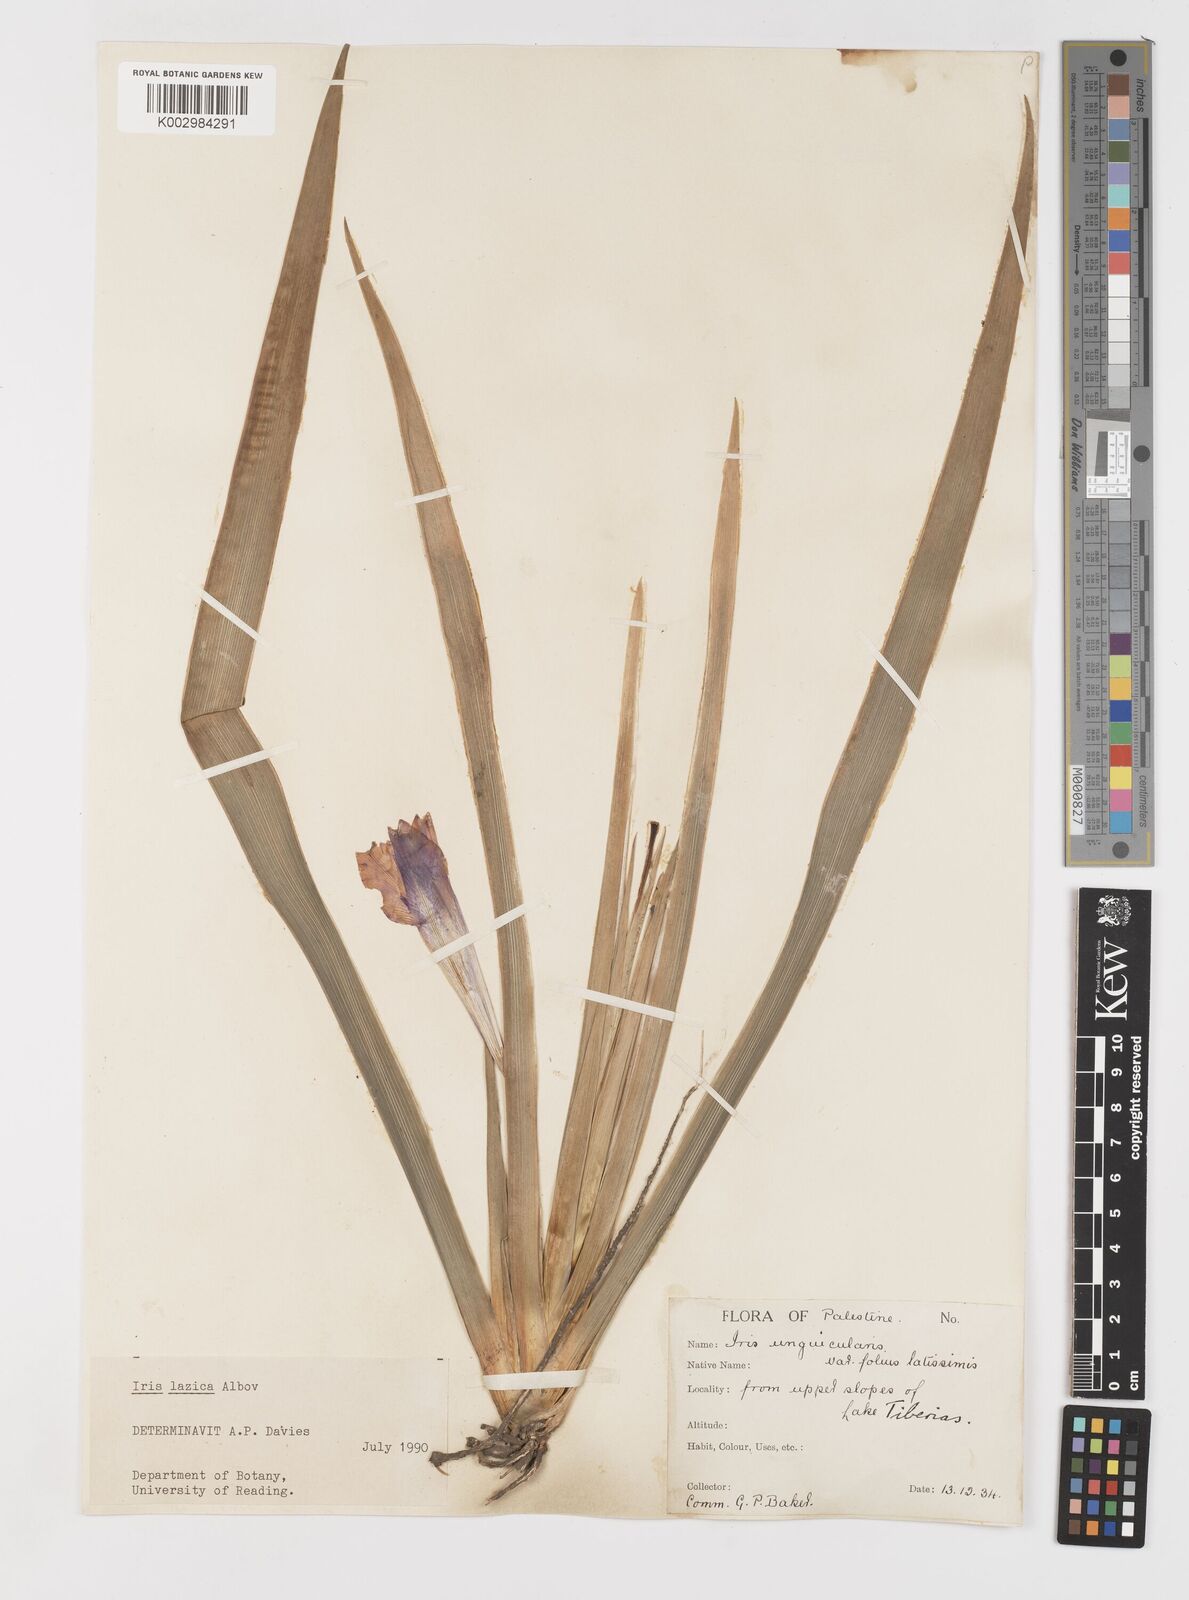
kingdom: Plantae
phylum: Tracheophyta
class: Liliopsida
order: Asparagales
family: Iridaceae
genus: Iris
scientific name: Iris lazica
